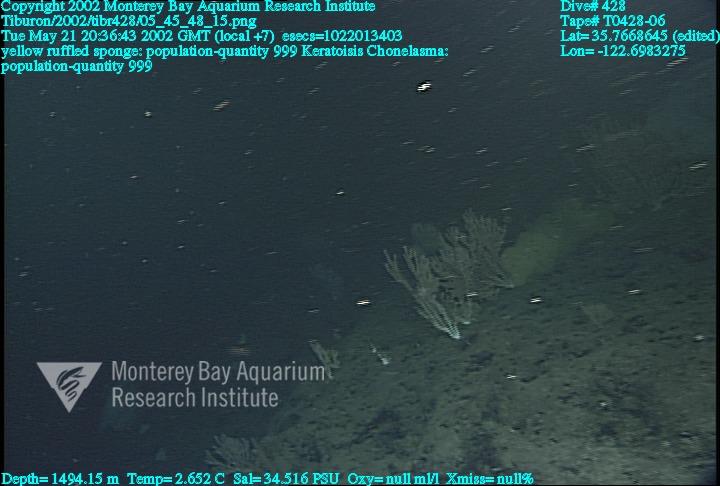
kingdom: Animalia
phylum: Porifera
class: Hexactinellida
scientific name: Hexactinellida
